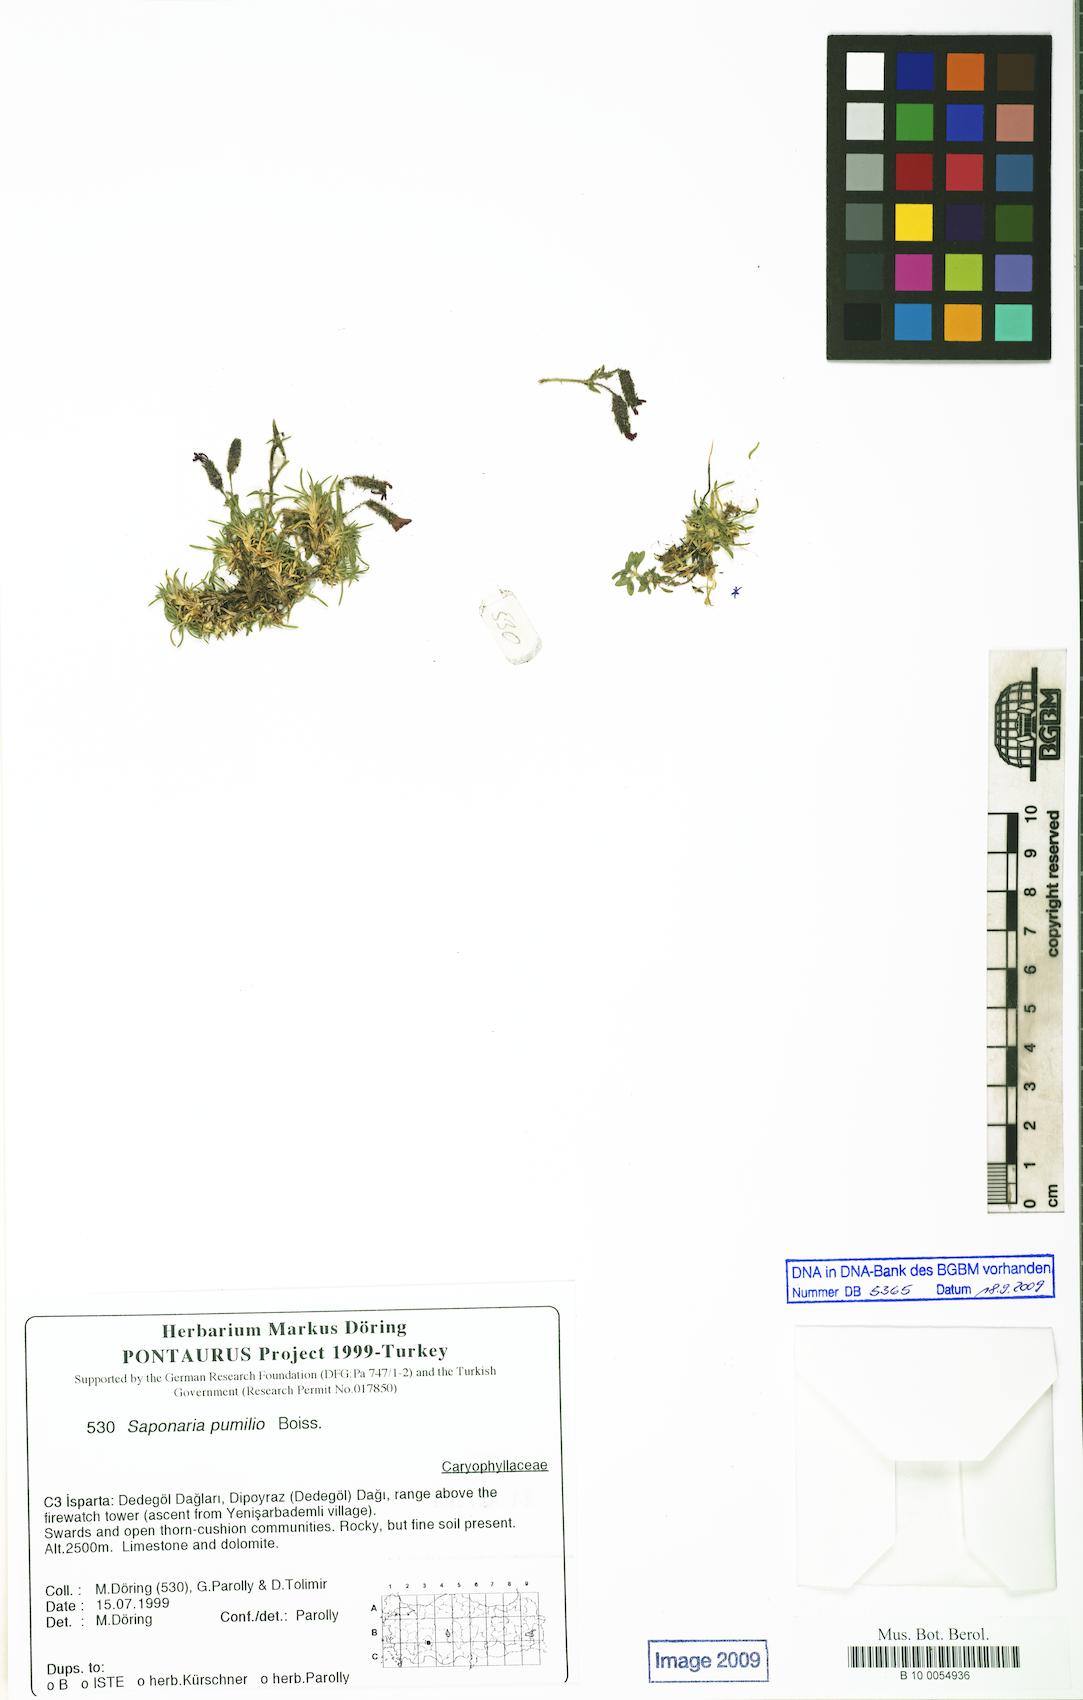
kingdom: Plantae
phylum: Tracheophyta
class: Magnoliopsida
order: Caryophyllales
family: Caryophyllaceae
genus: Saponaria
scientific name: Saponaria pumilio
